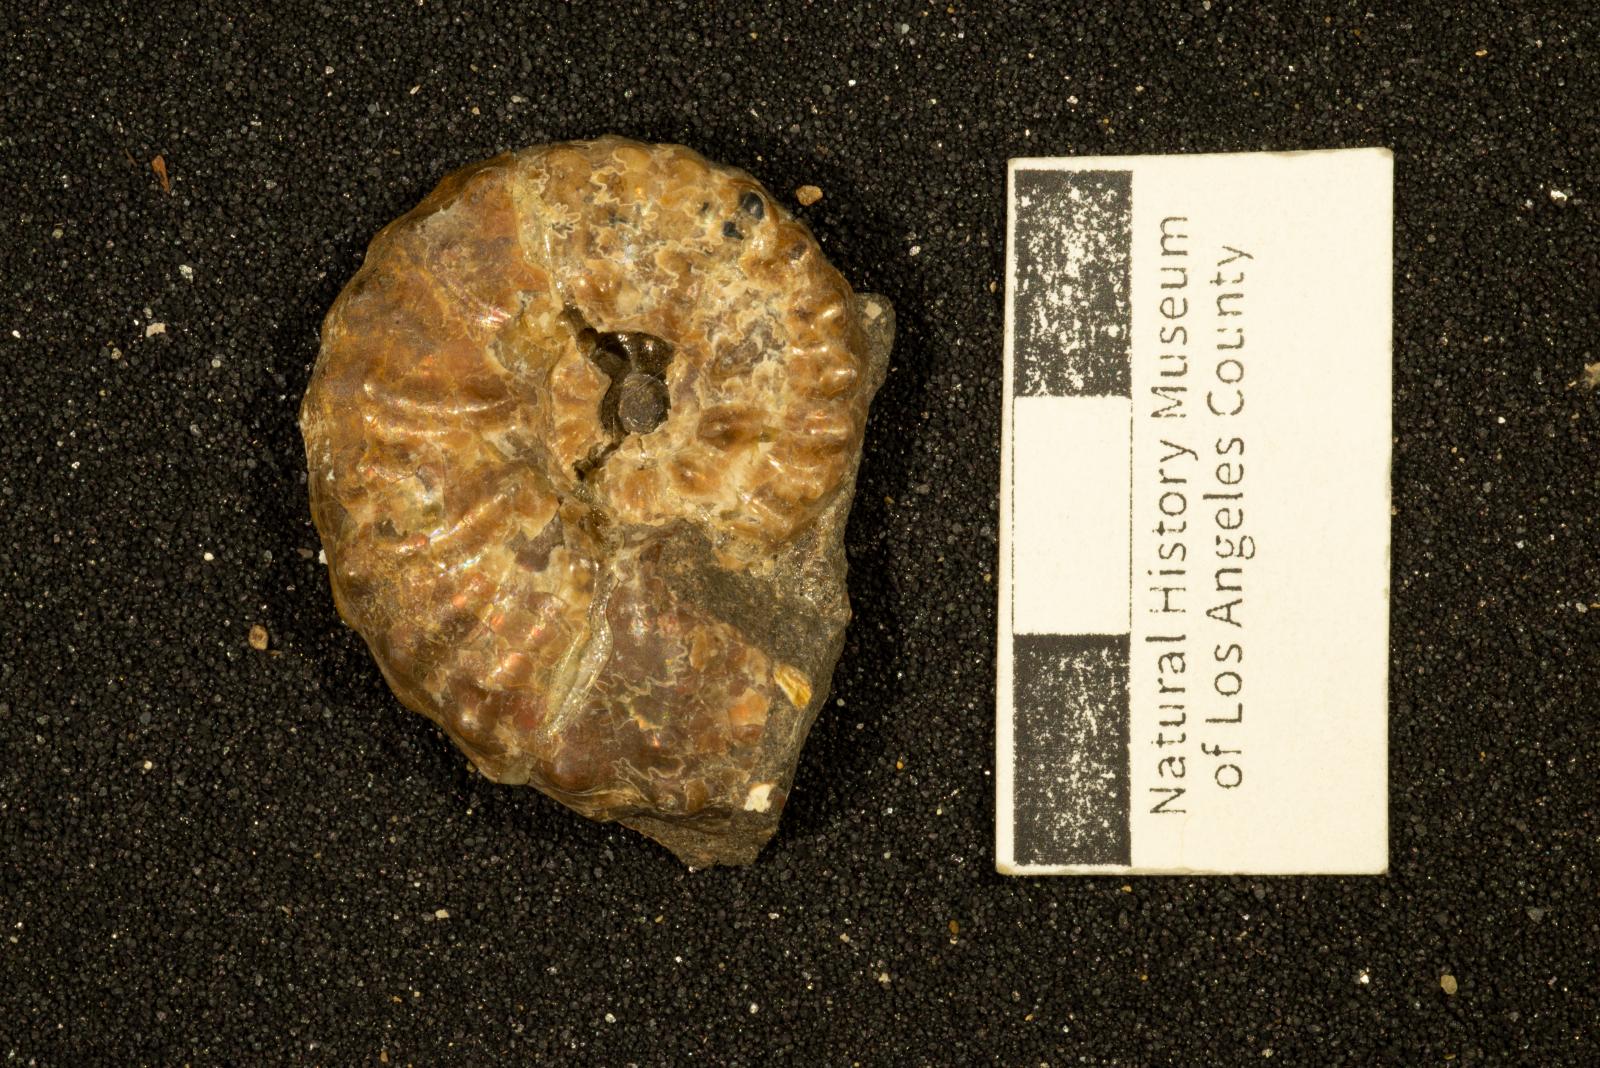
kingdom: Animalia
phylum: Mollusca
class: Cephalopoda
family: Collignoniceratidae
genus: Subprionocyclus
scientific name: Subprionocyclus
